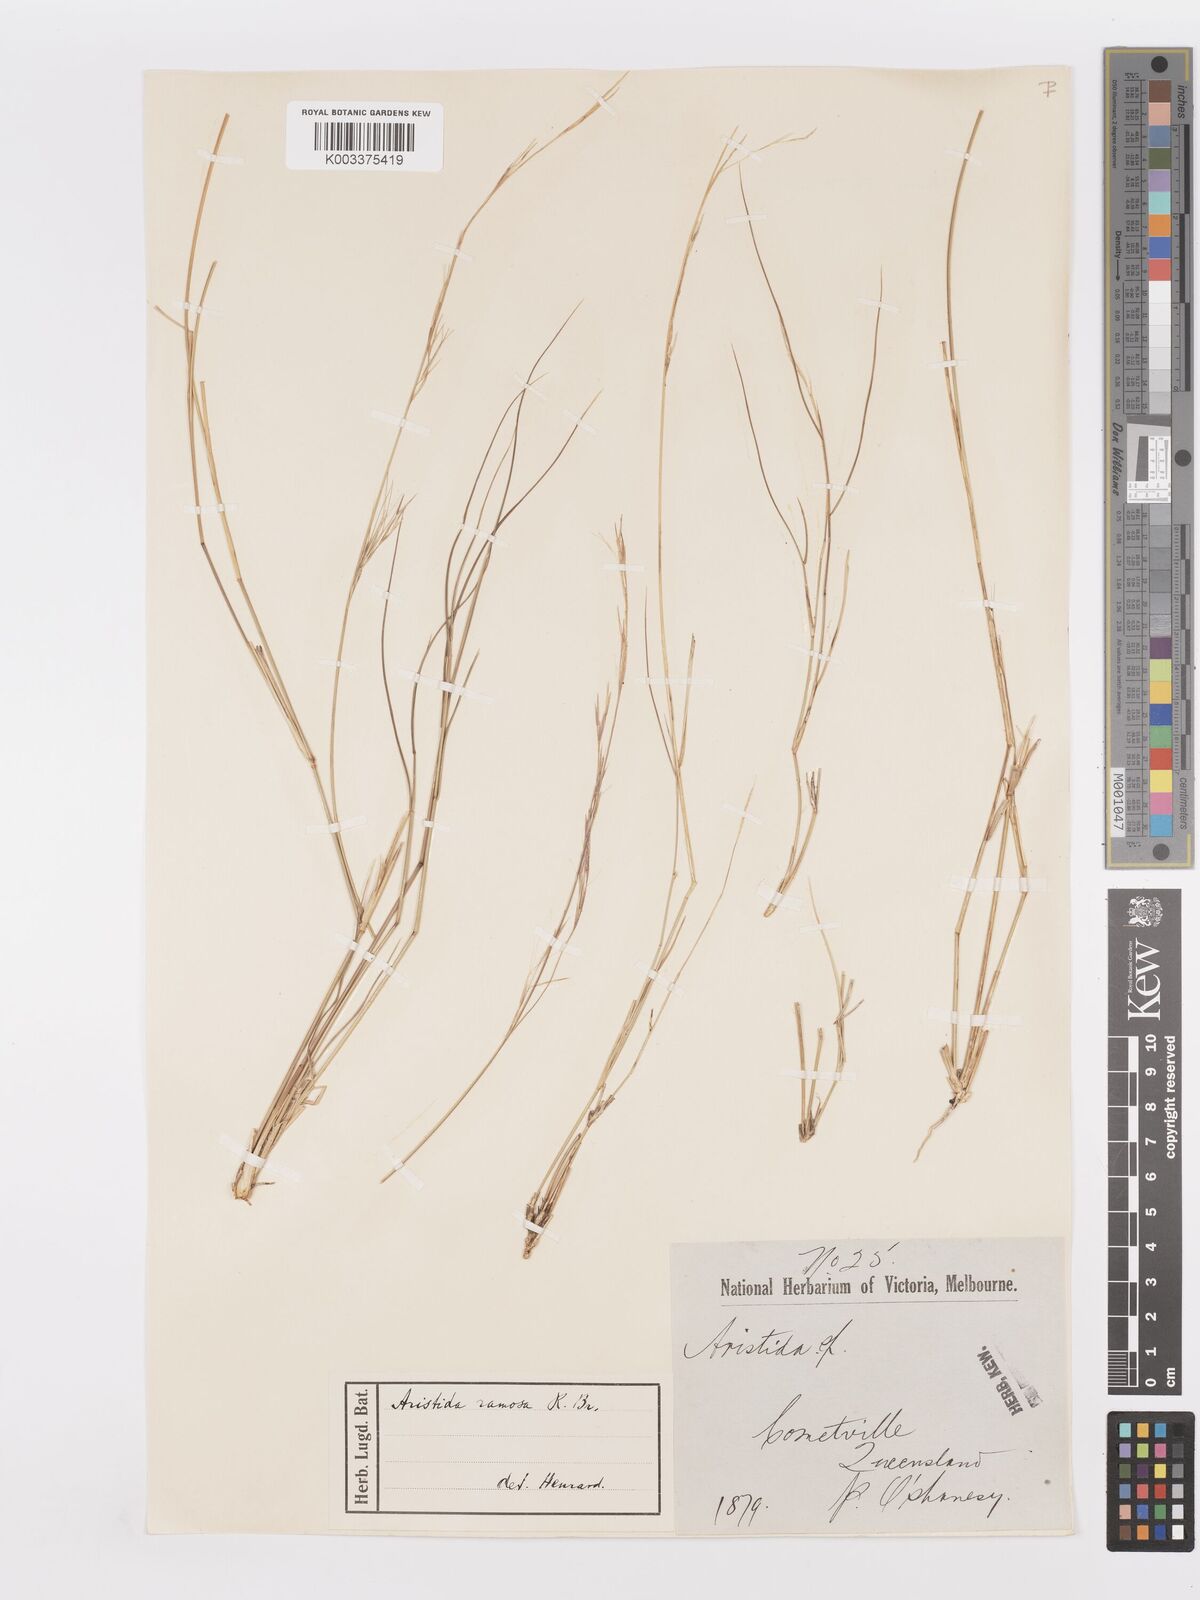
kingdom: Plantae
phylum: Tracheophyta
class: Liliopsida
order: Poales
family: Poaceae
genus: Aristida
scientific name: Aristida ramosa
